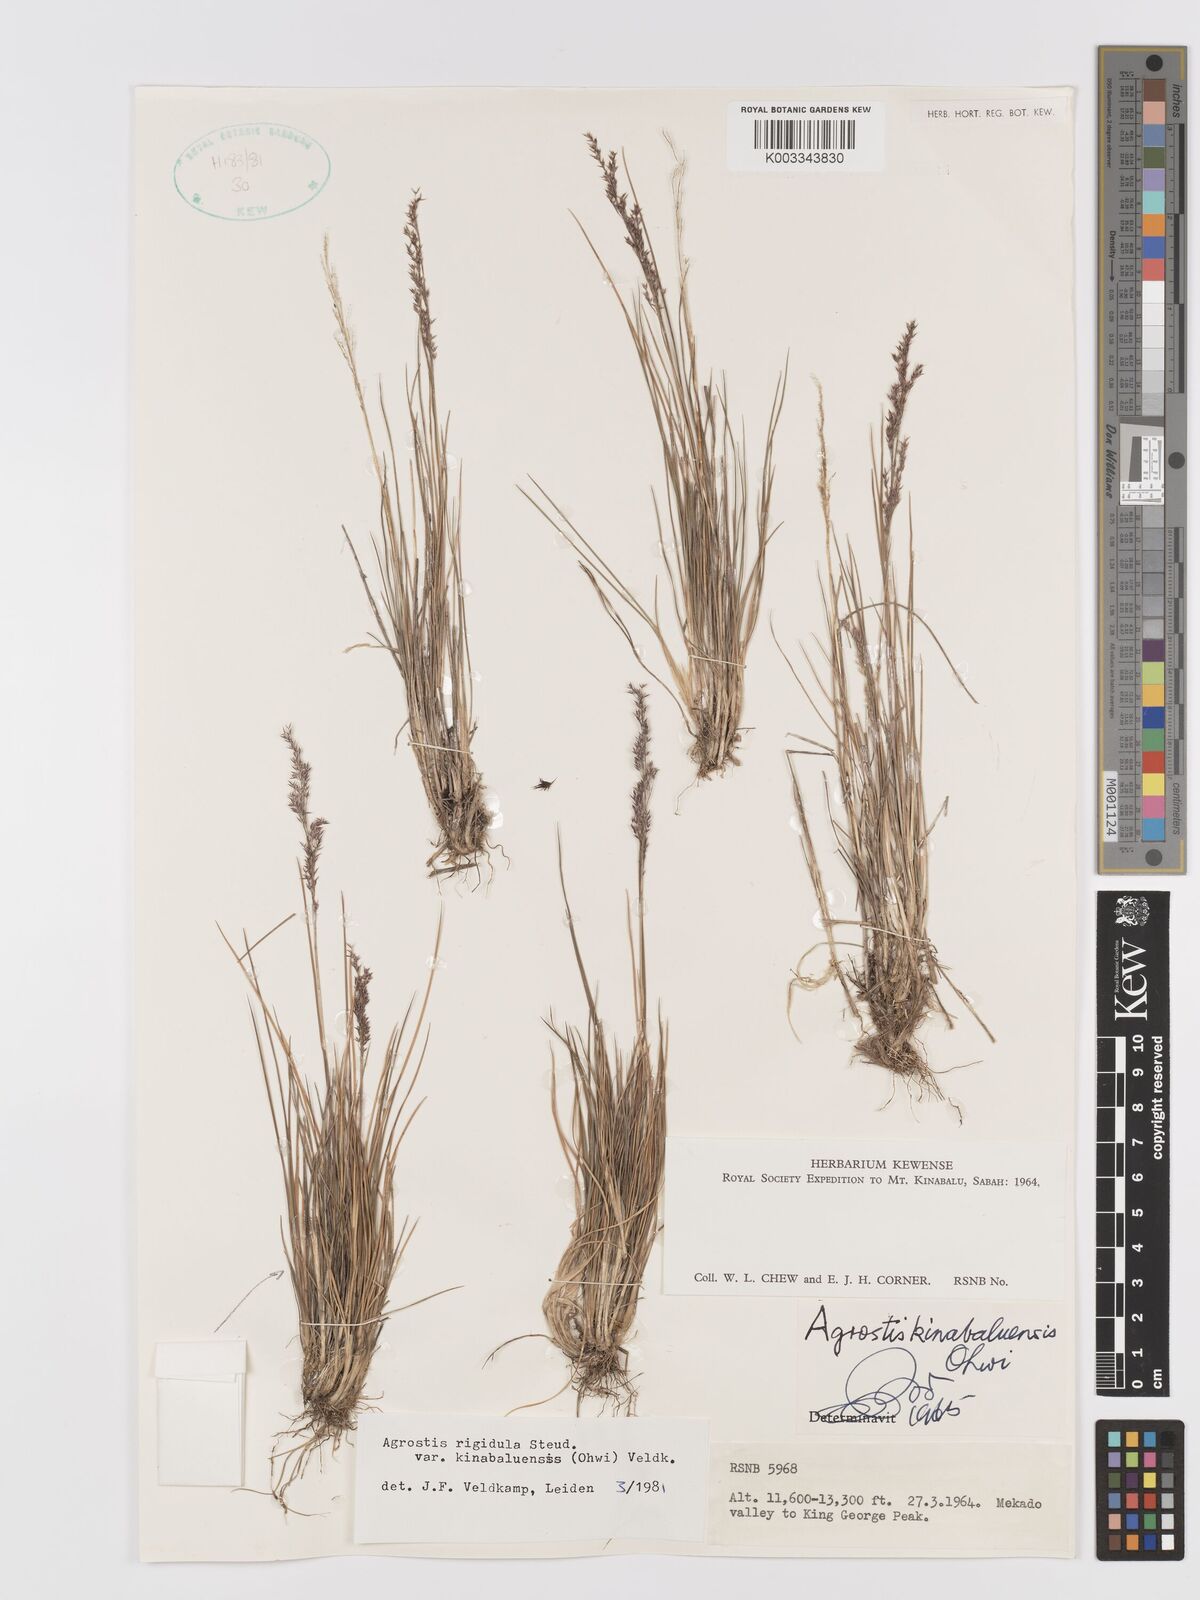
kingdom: Plantae
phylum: Tracheophyta
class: Liliopsida
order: Poales
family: Poaceae
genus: Agrostis
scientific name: Agrostis infirma
